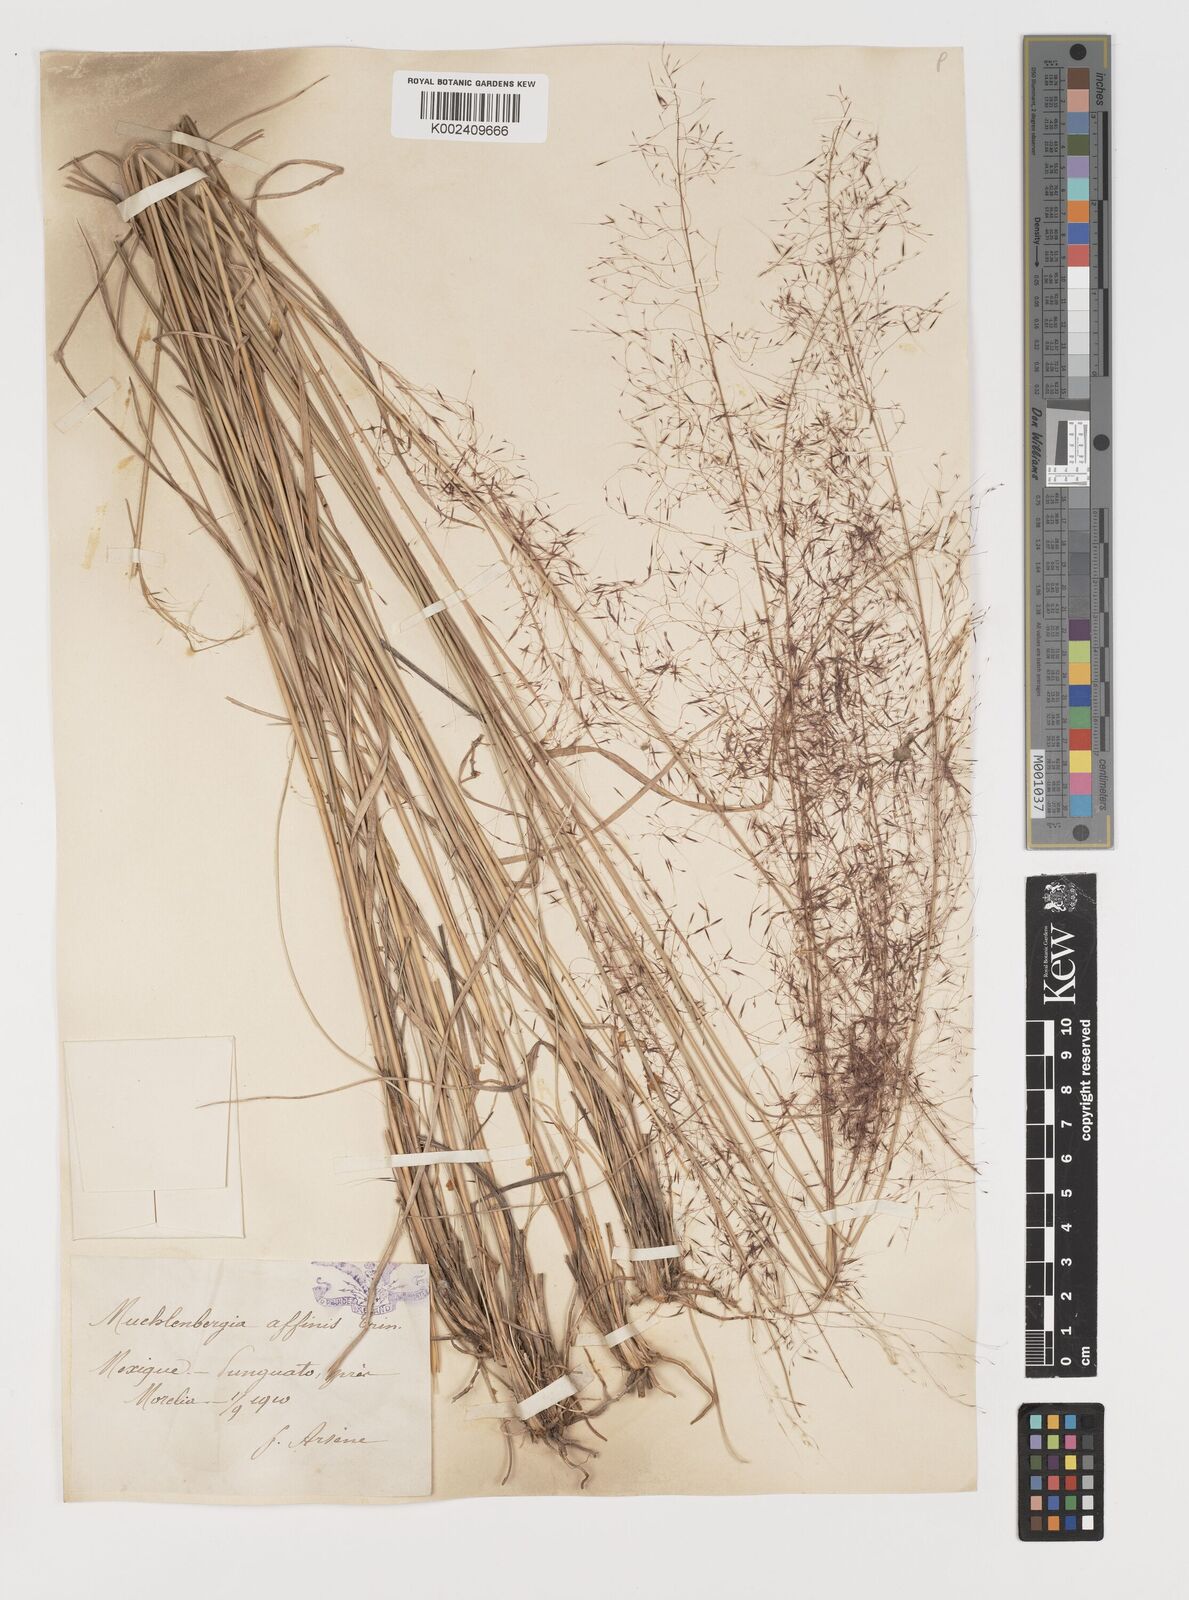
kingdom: Plantae
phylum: Tracheophyta
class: Liliopsida
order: Poales
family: Poaceae
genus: Muhlenbergia
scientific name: Muhlenbergia rigida
